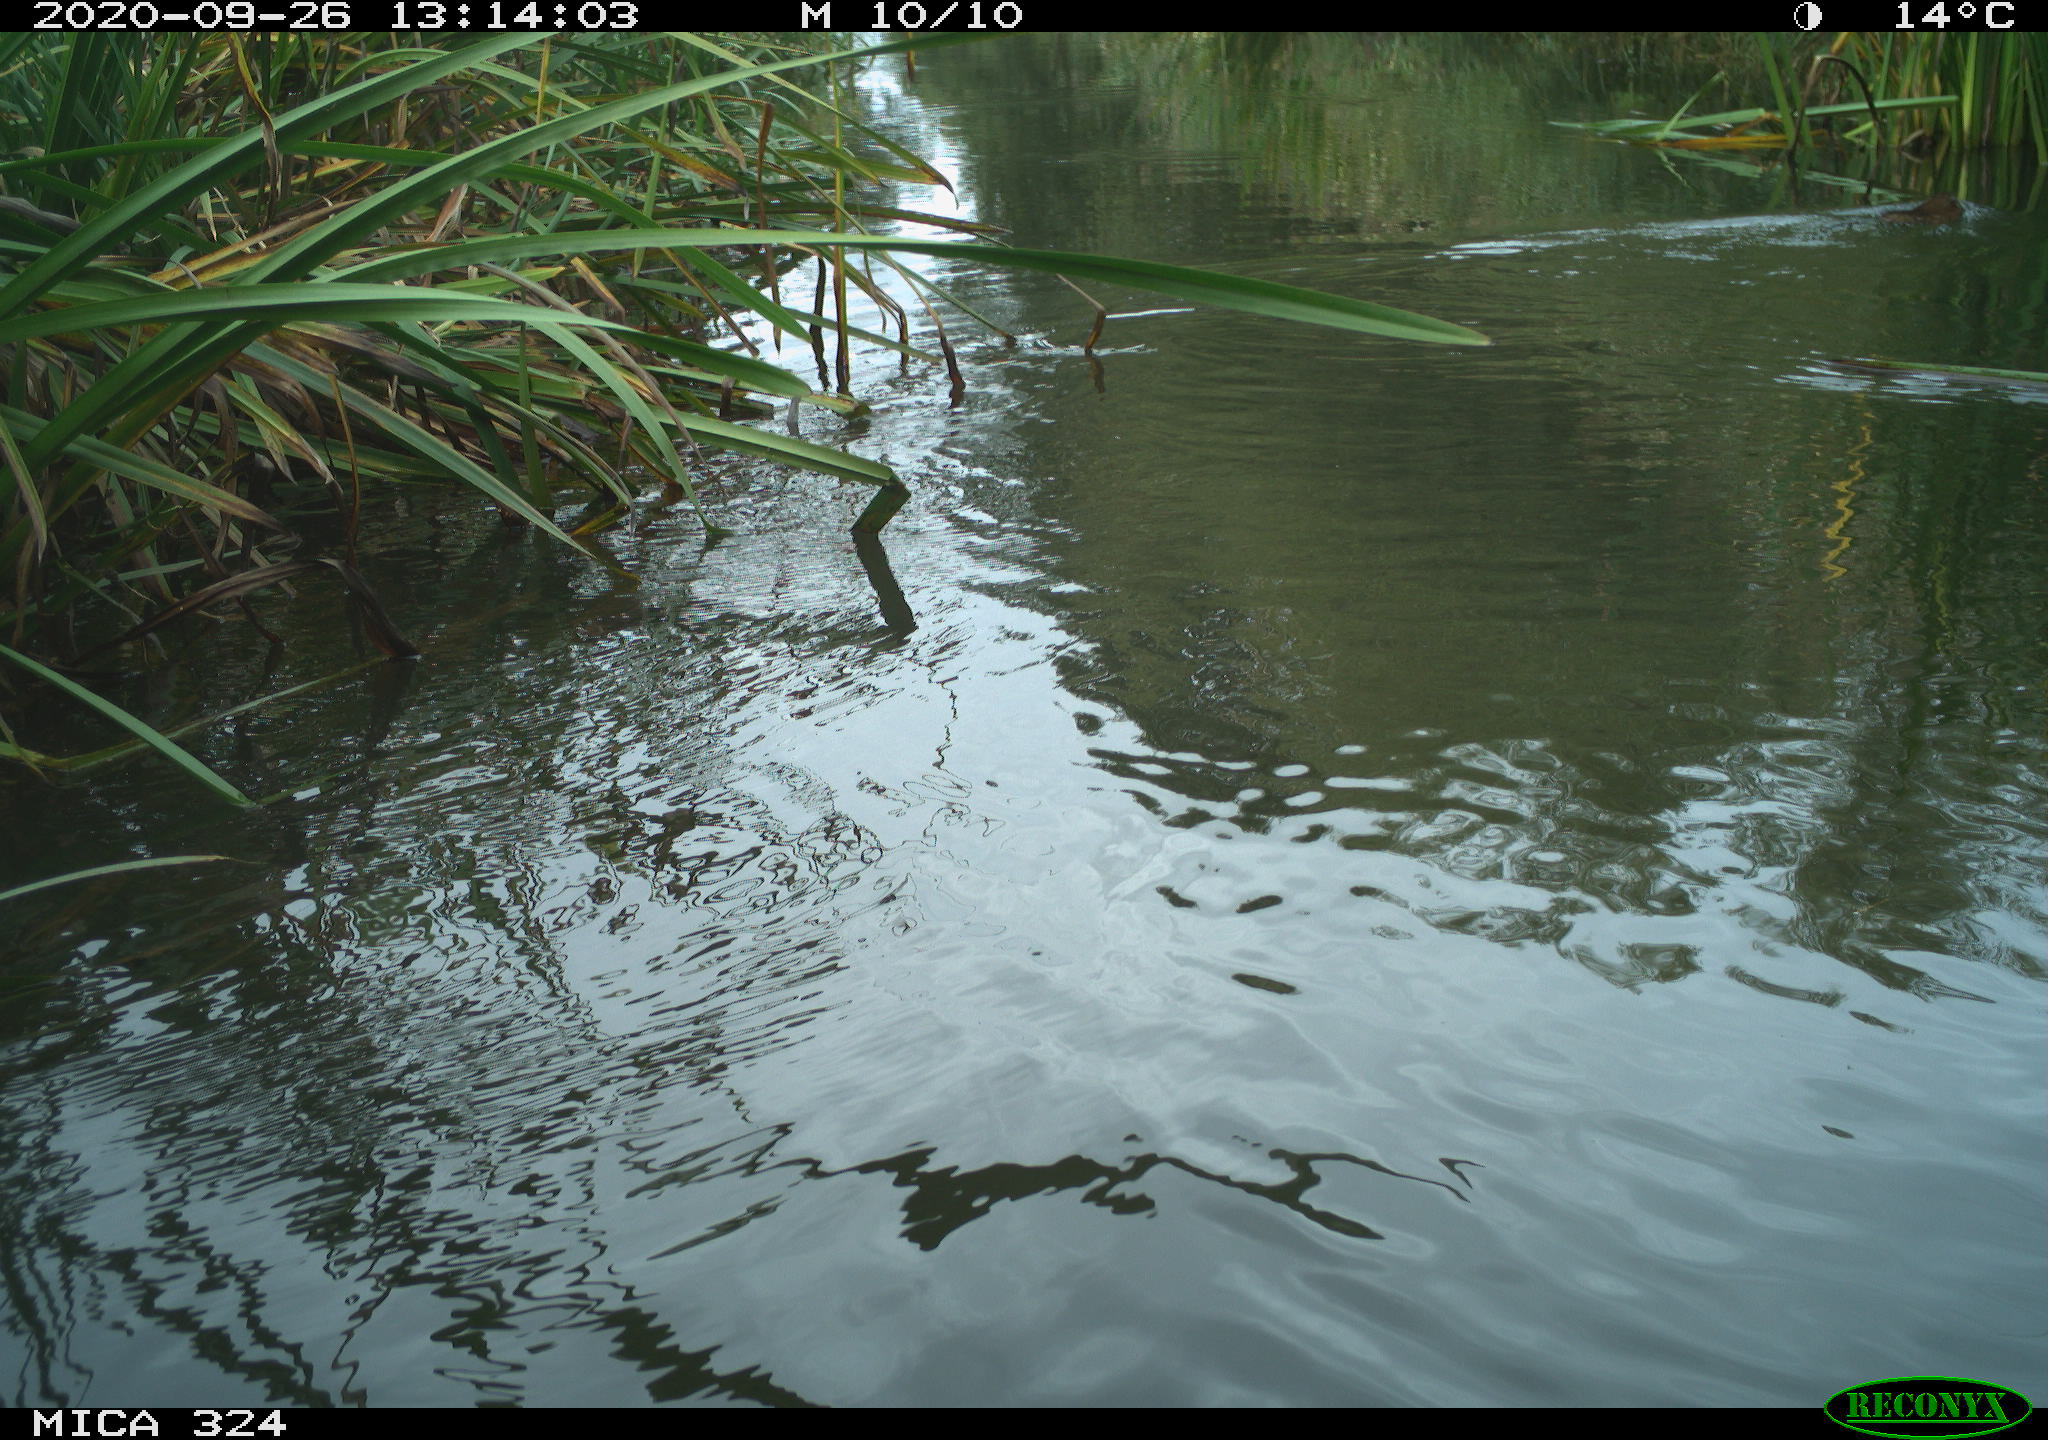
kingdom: Animalia
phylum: Chordata
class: Mammalia
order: Rodentia
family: Cricetidae
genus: Ondatra
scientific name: Ondatra zibethicus
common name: Muskrat
